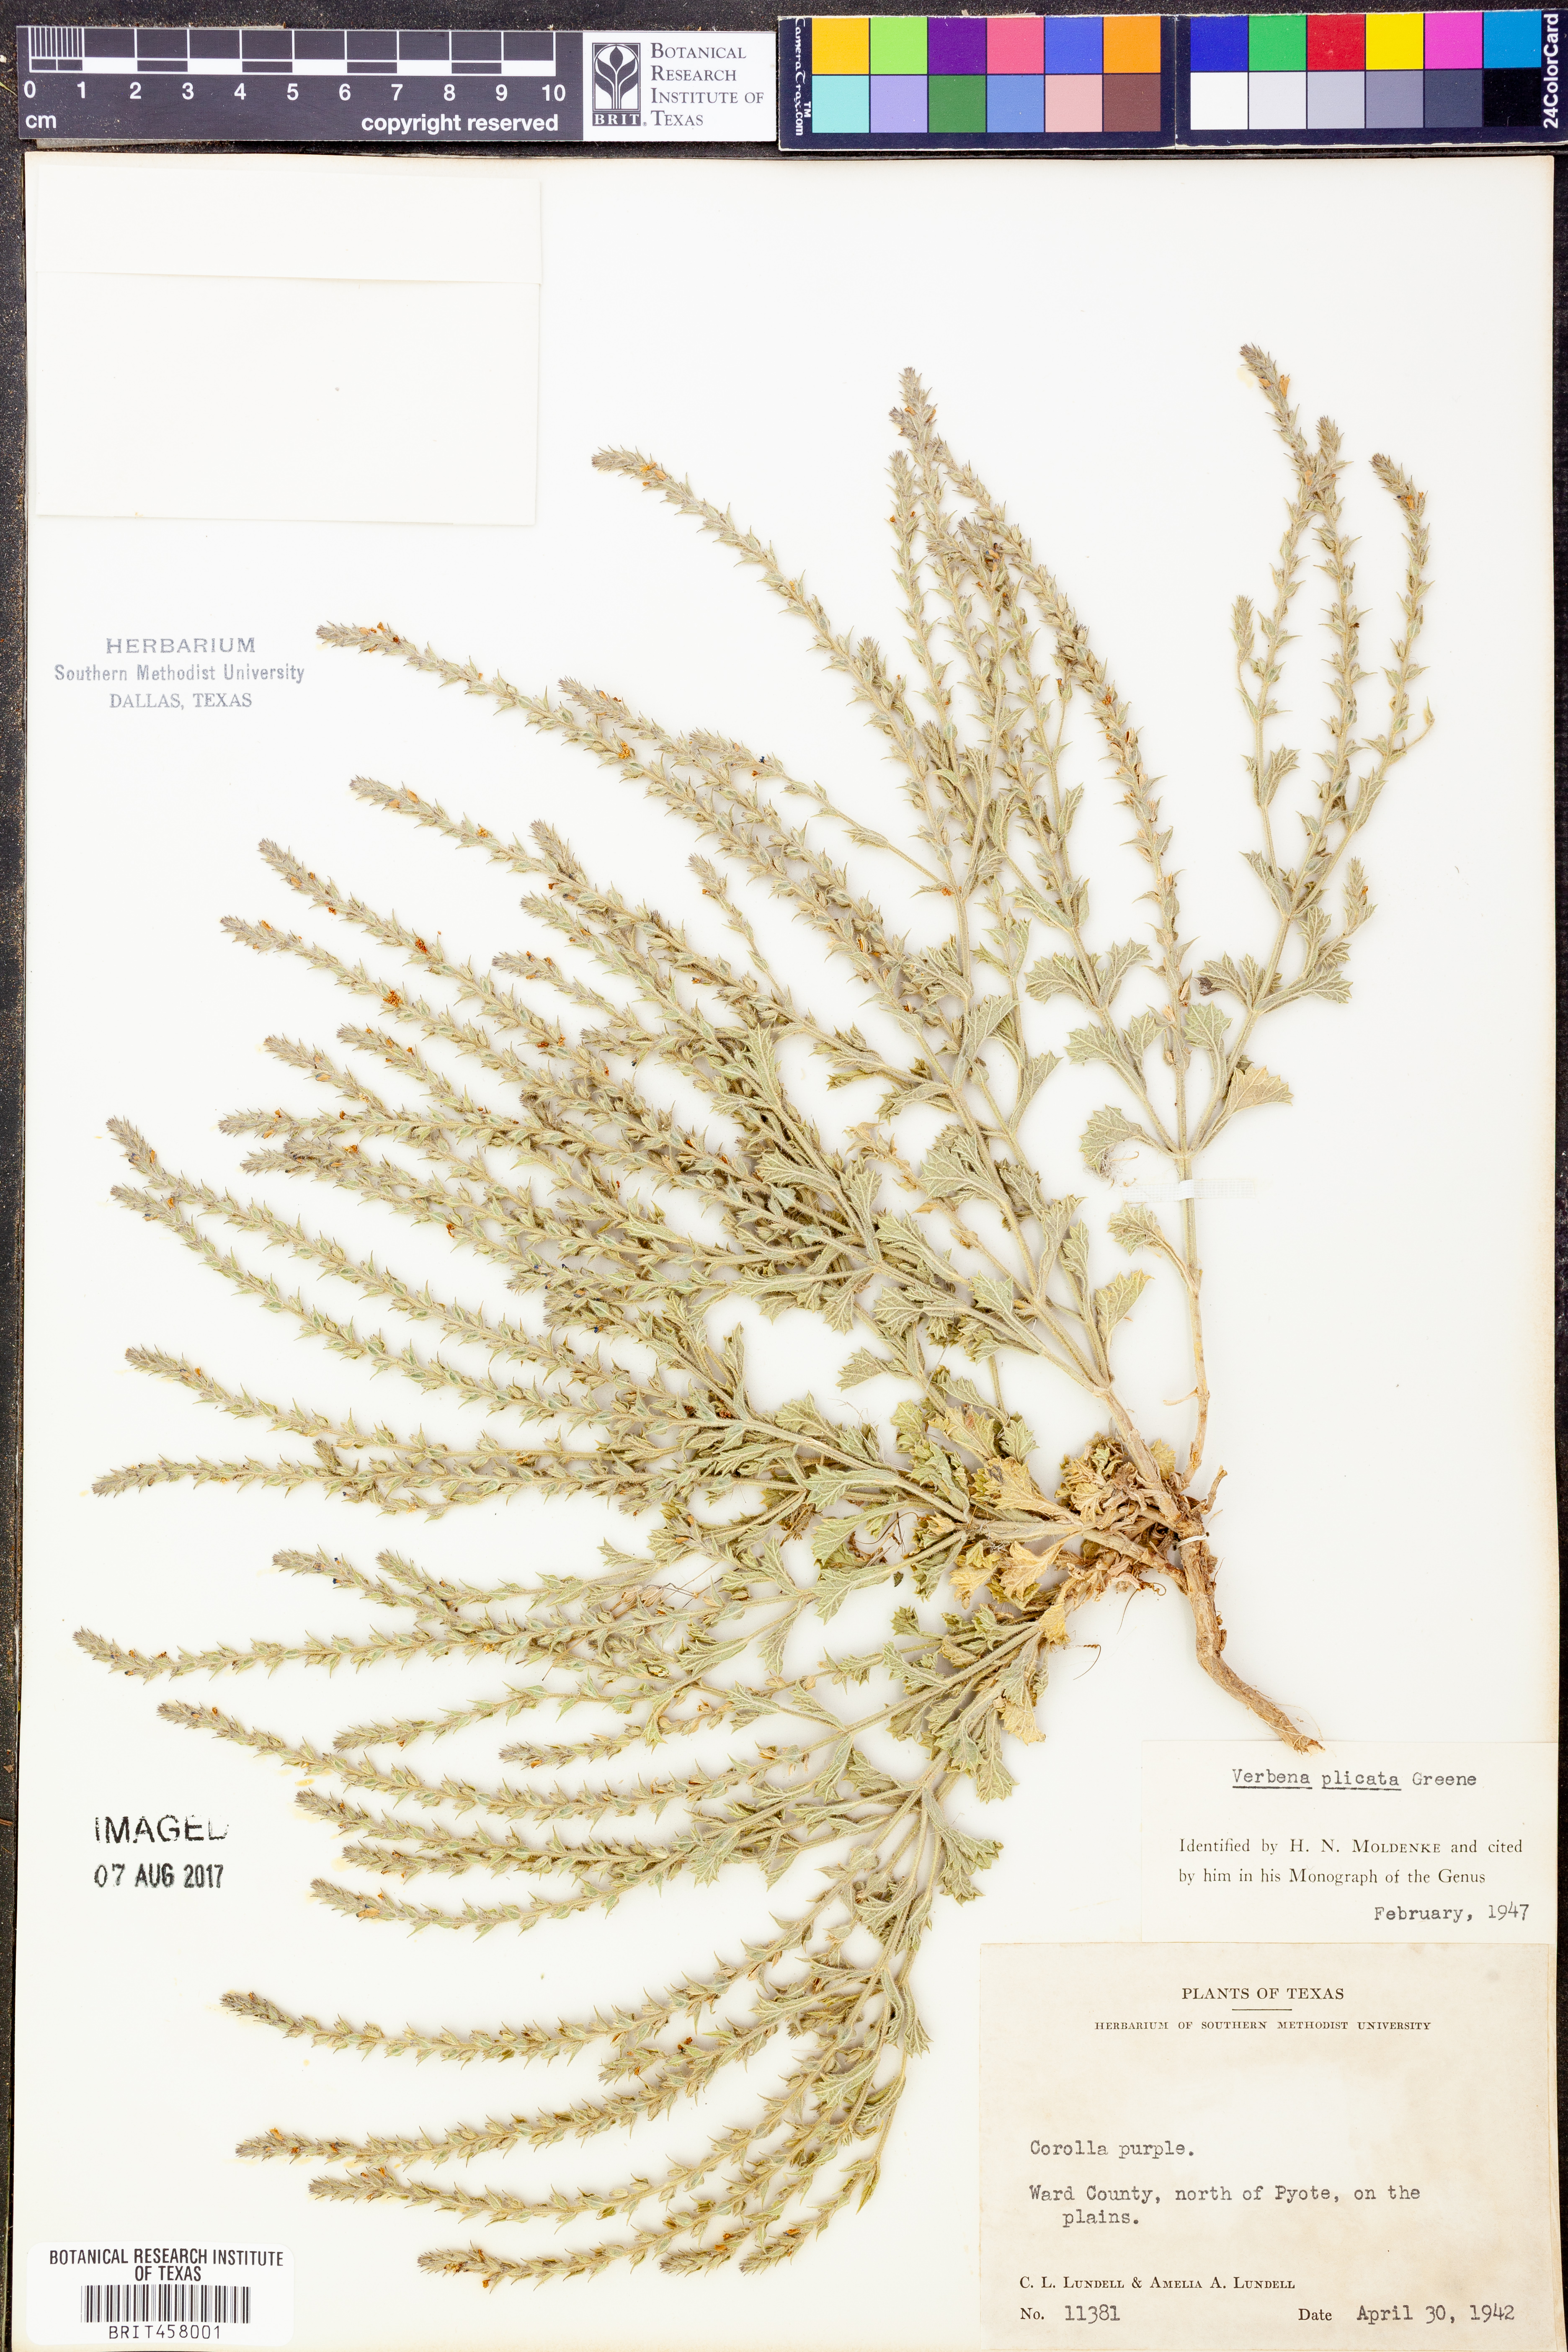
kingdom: Plantae
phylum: Tracheophyta
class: Magnoliopsida
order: Lamiales
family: Verbenaceae
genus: Verbena
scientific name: Verbena plicata
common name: Fan-leaf vervain
